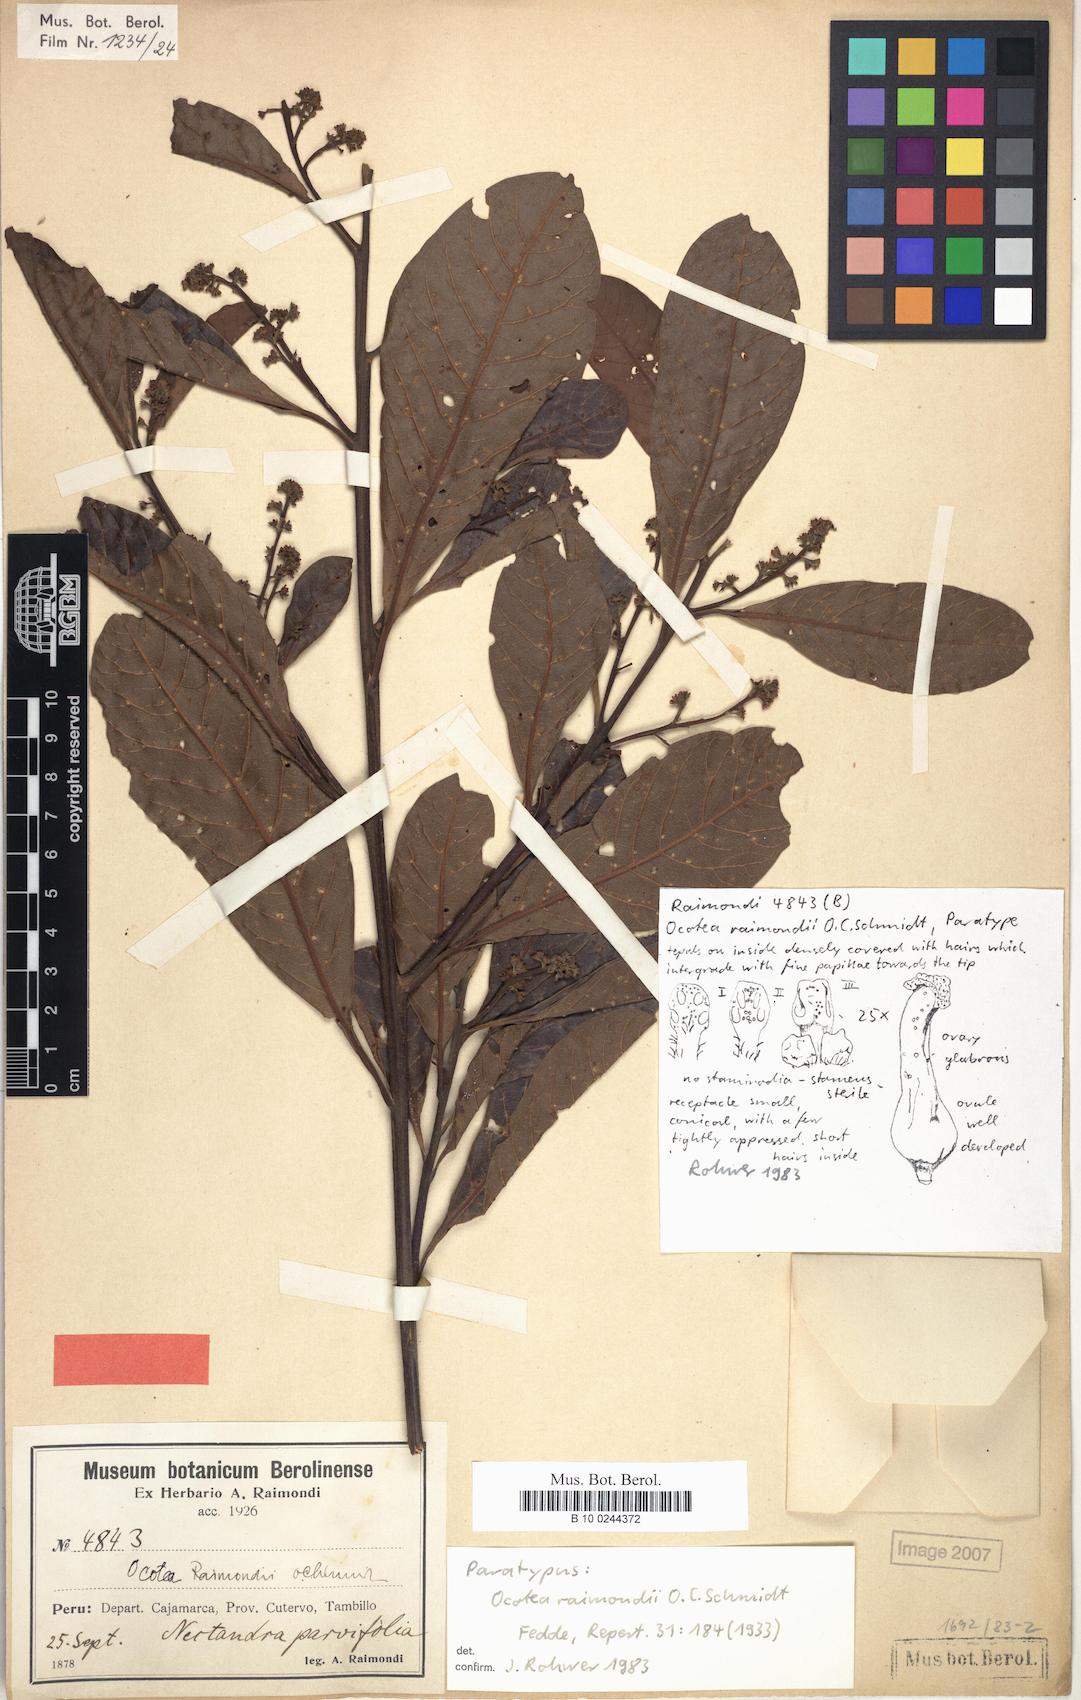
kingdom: Plantae
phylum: Tracheophyta
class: Magnoliopsida
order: Laurales
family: Lauraceae
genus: Ocotea
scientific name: Ocotea cuneifolia
